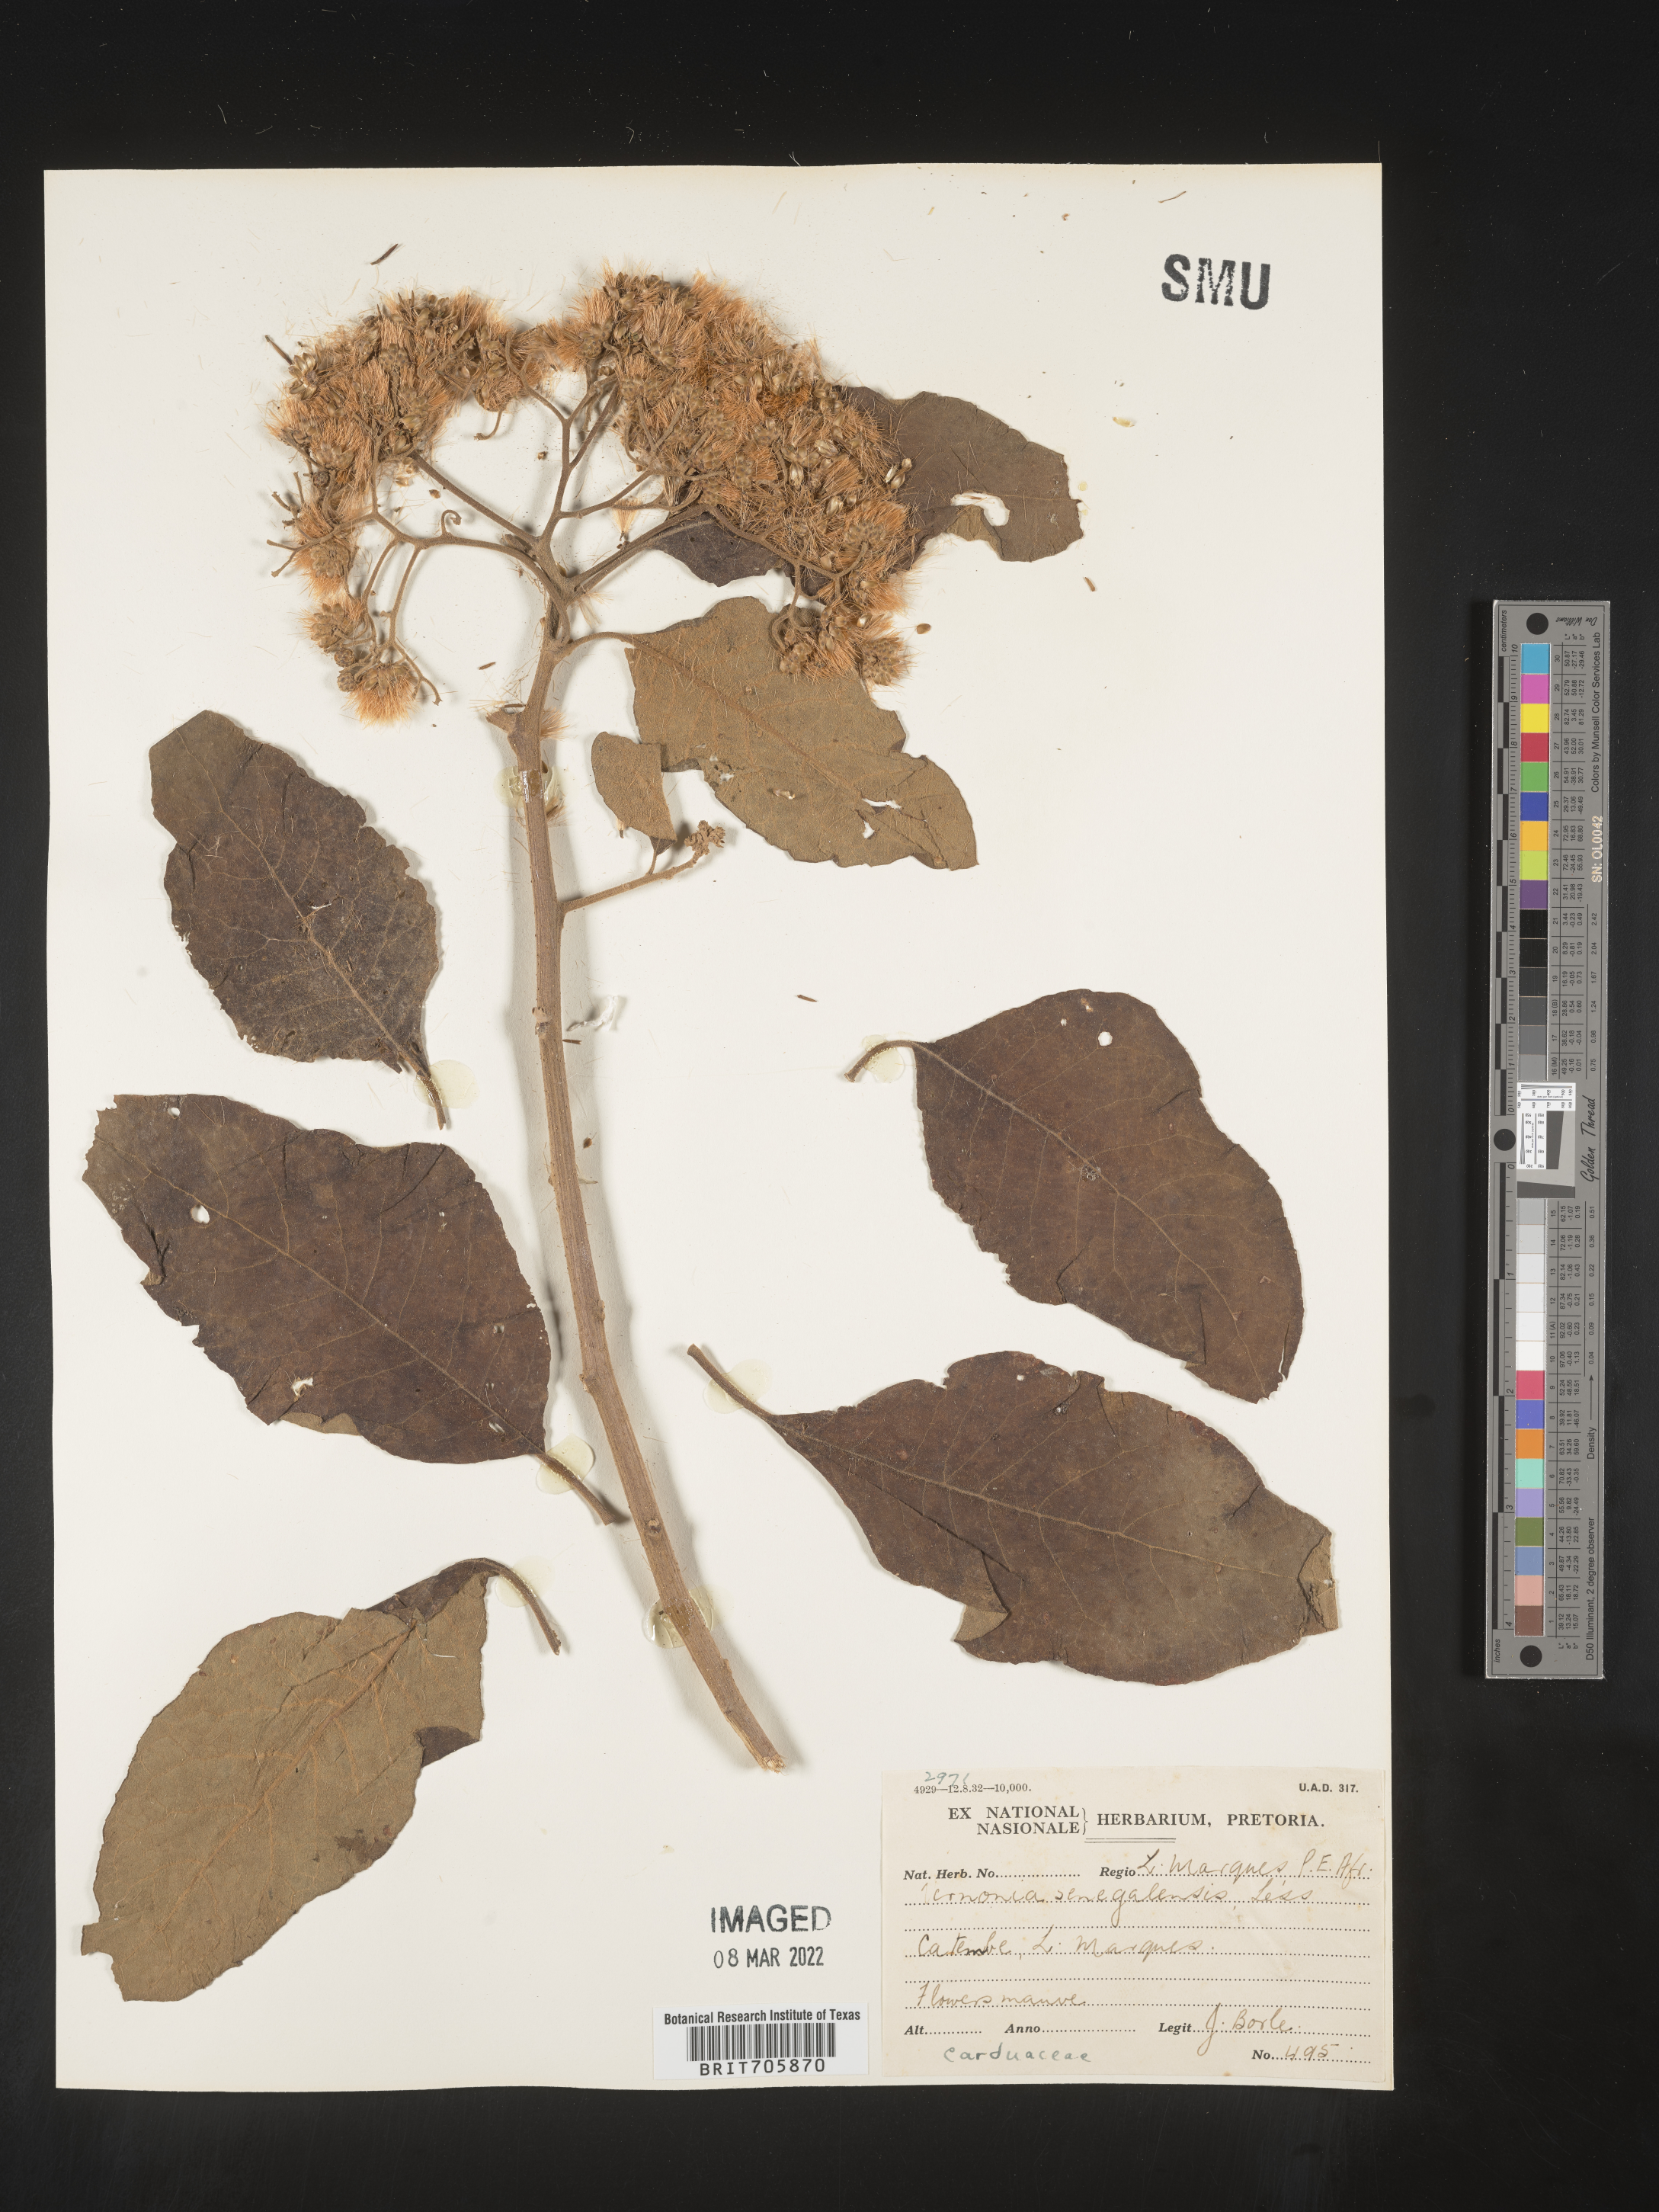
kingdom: Plantae
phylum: Tracheophyta
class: Magnoliopsida
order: Asterales
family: Asteraceae
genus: Vernonia
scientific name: Vernonia
